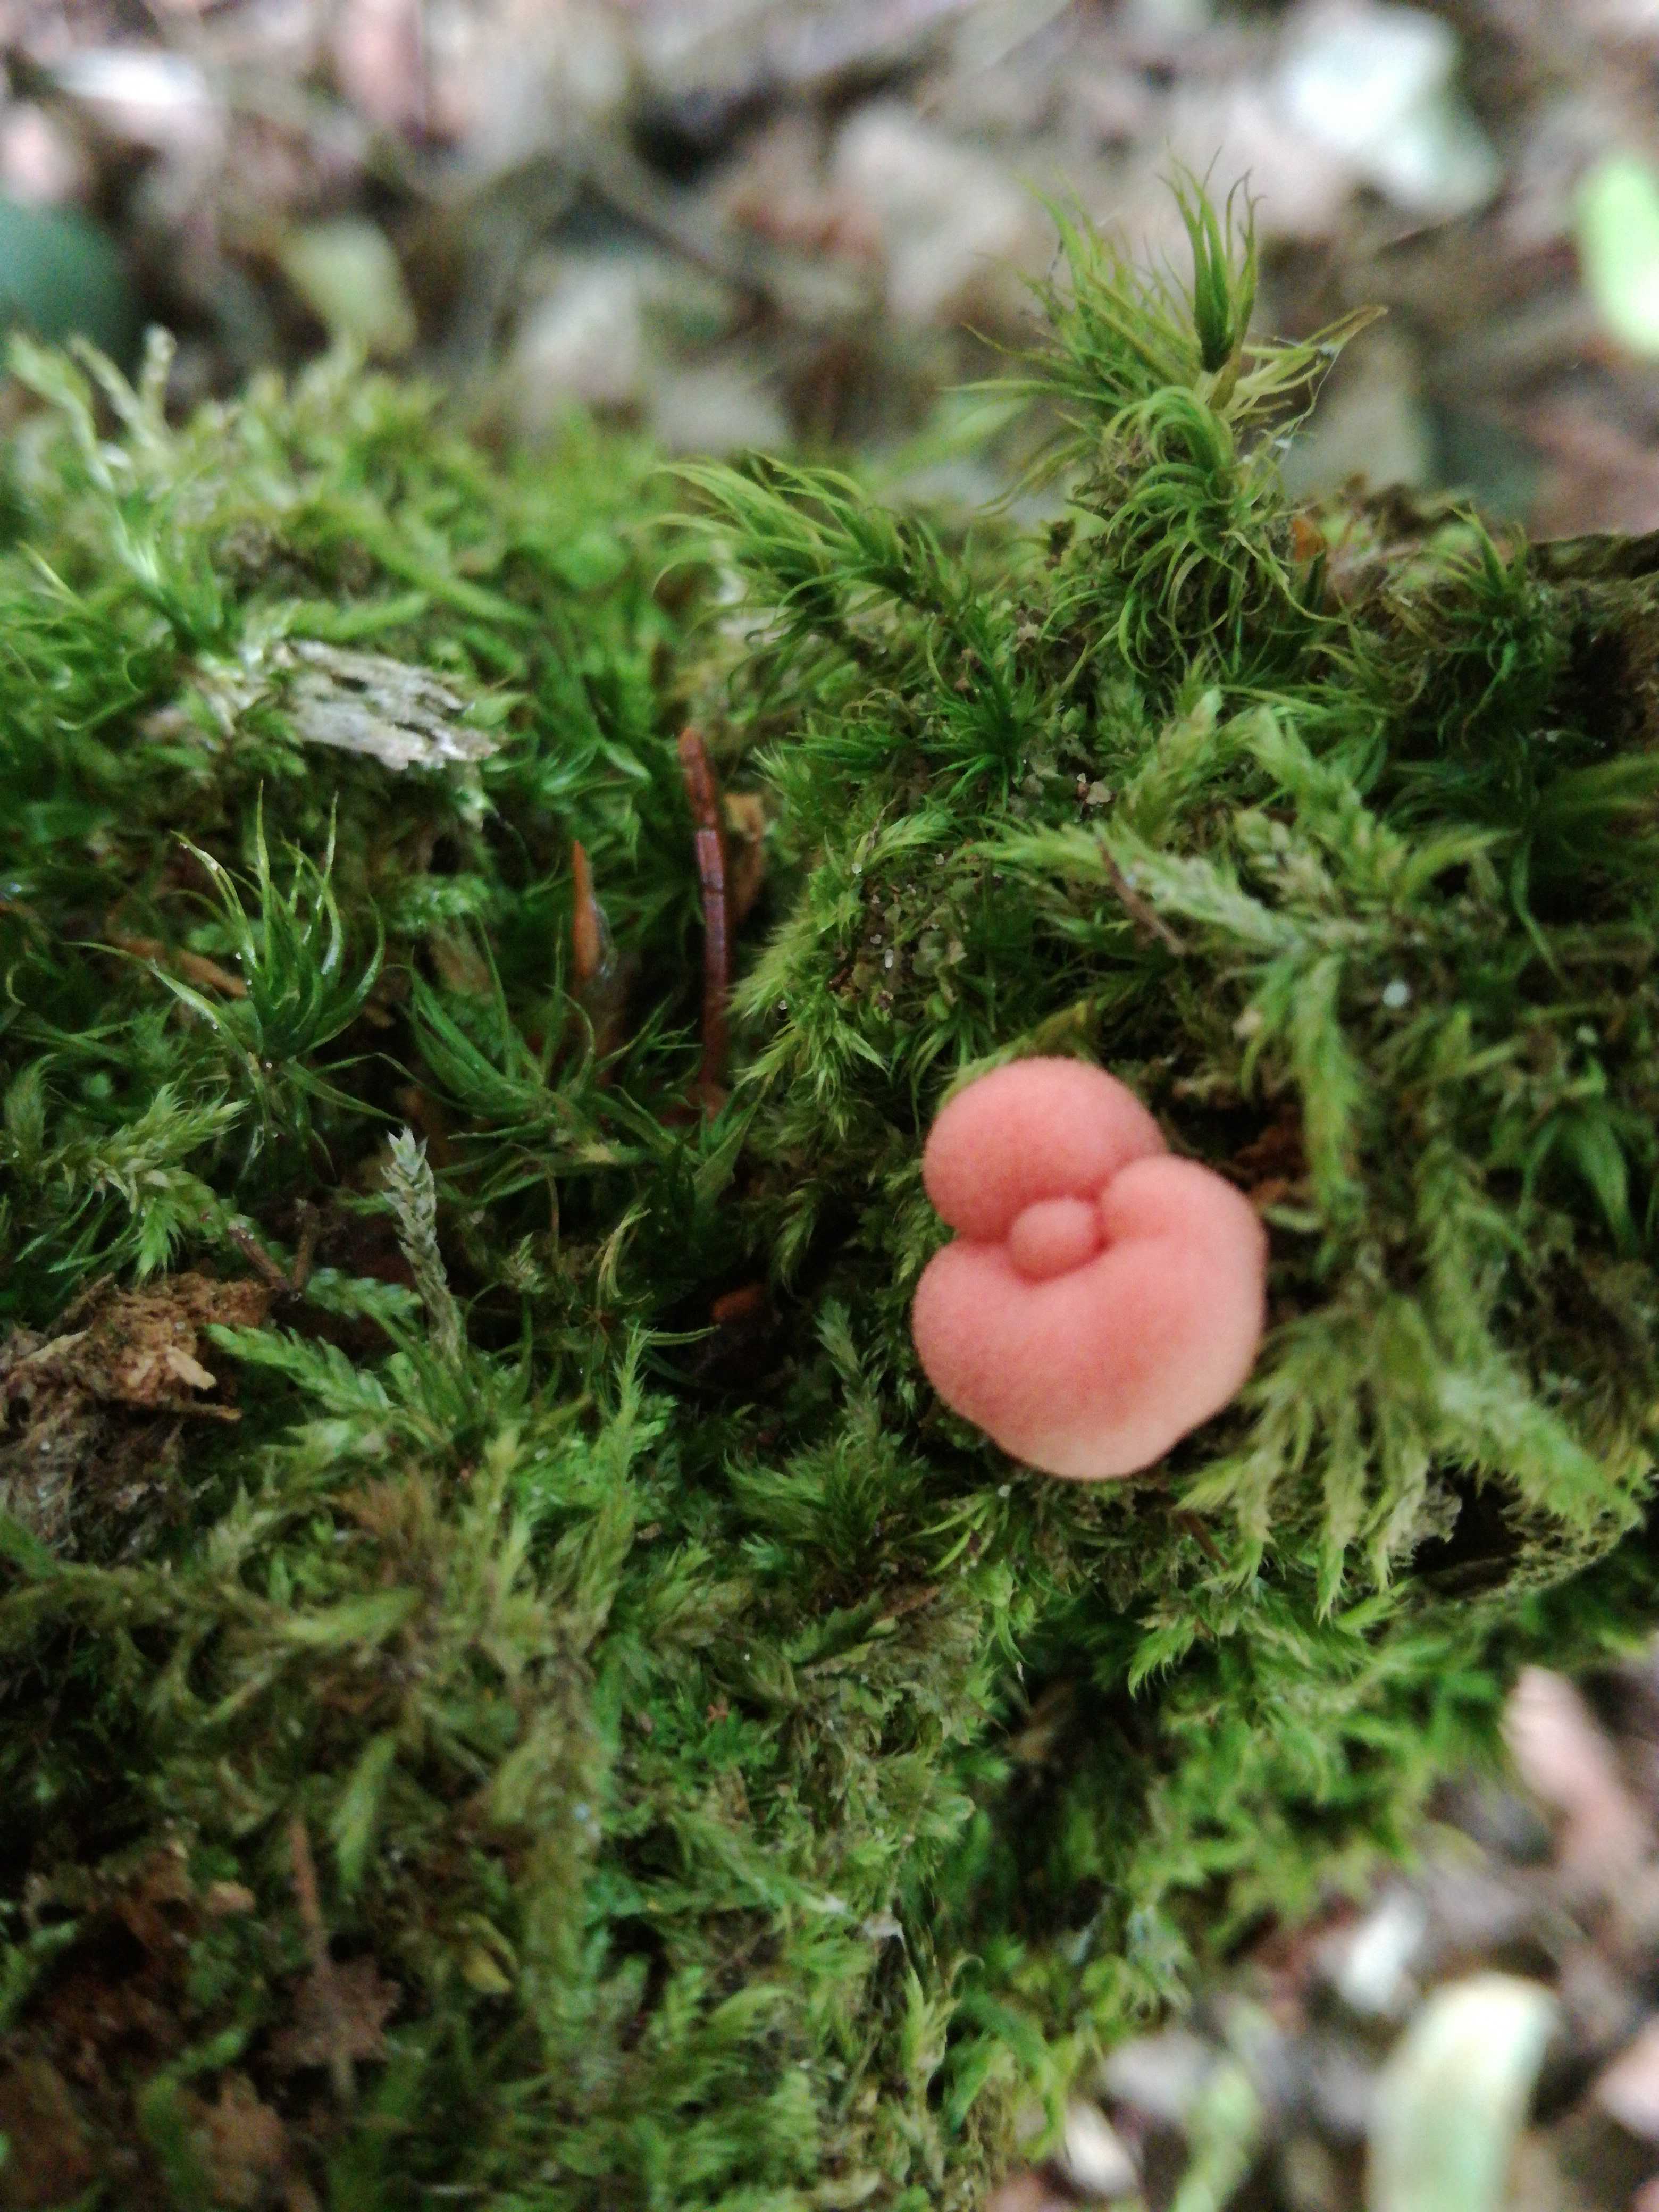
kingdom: Protozoa
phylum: Mycetozoa
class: Myxomycetes
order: Cribrariales
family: Tubiferaceae
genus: Lycogala
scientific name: Lycogala epidendrum
